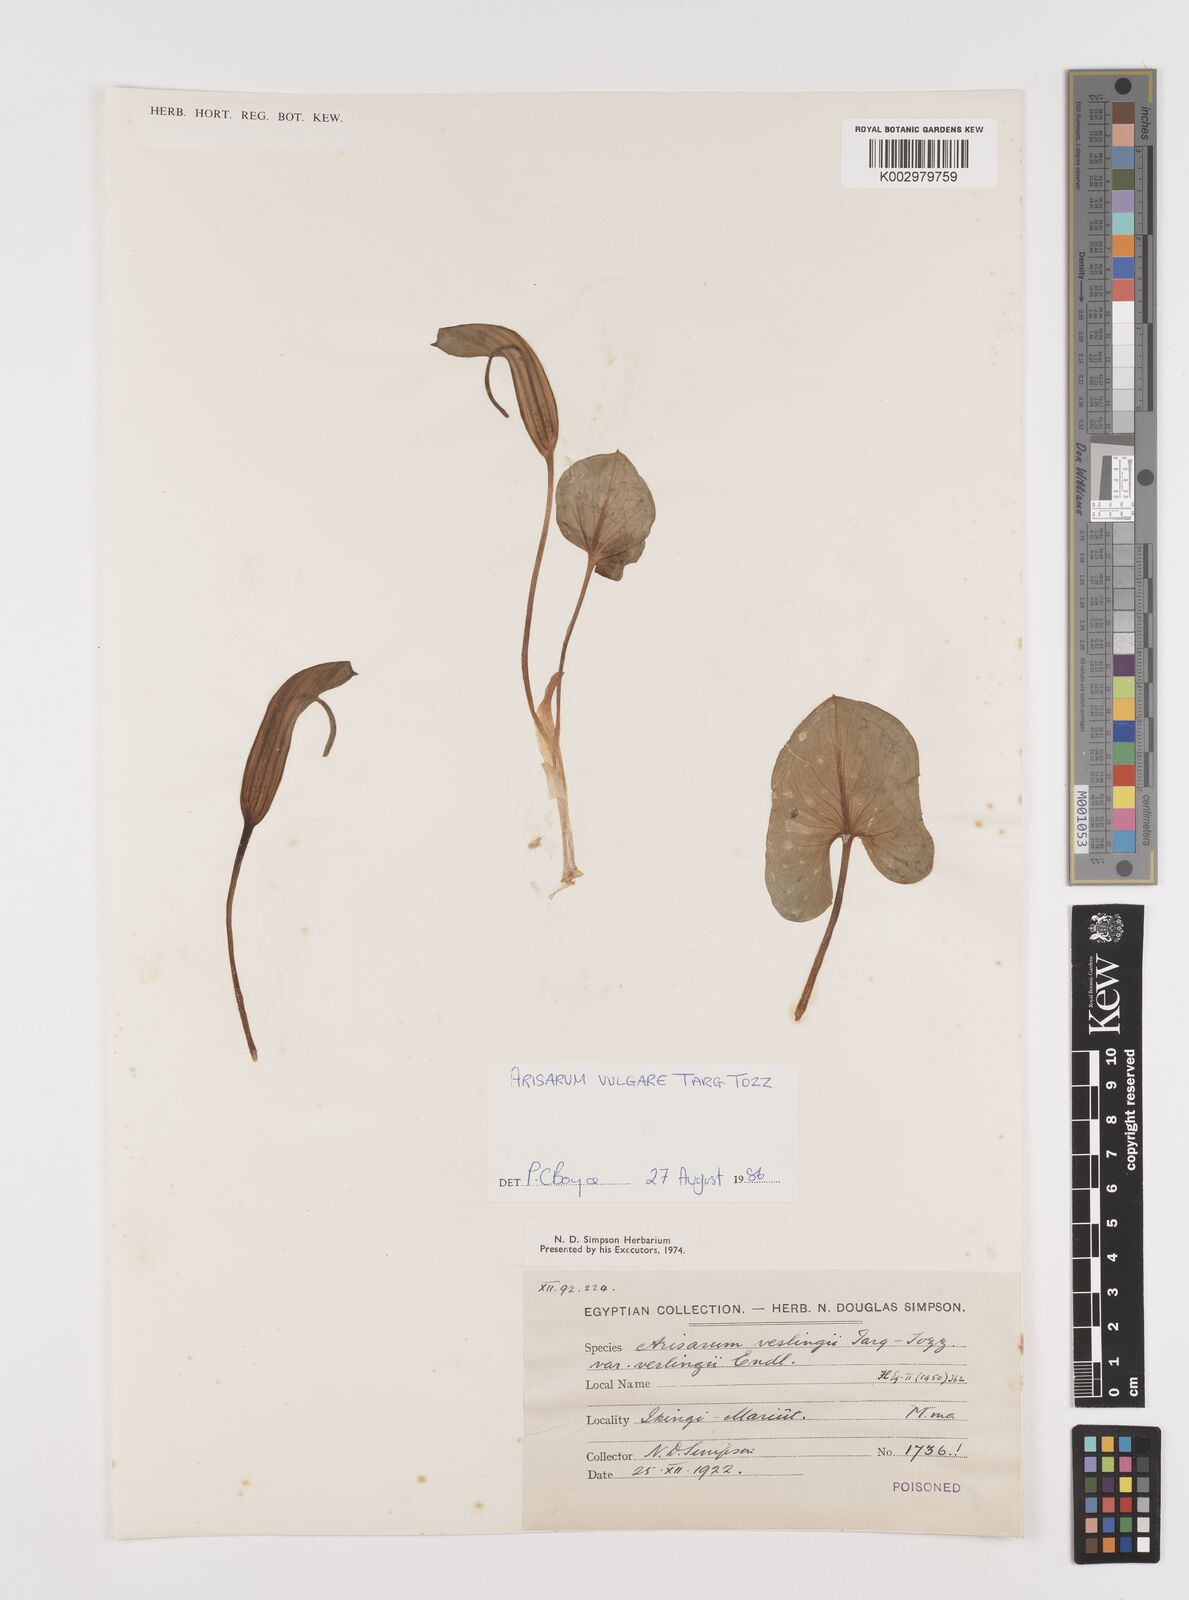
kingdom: Plantae
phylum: Tracheophyta
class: Liliopsida
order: Alismatales
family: Araceae
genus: Arisarum
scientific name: Arisarum vulgare
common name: Common arisarum
